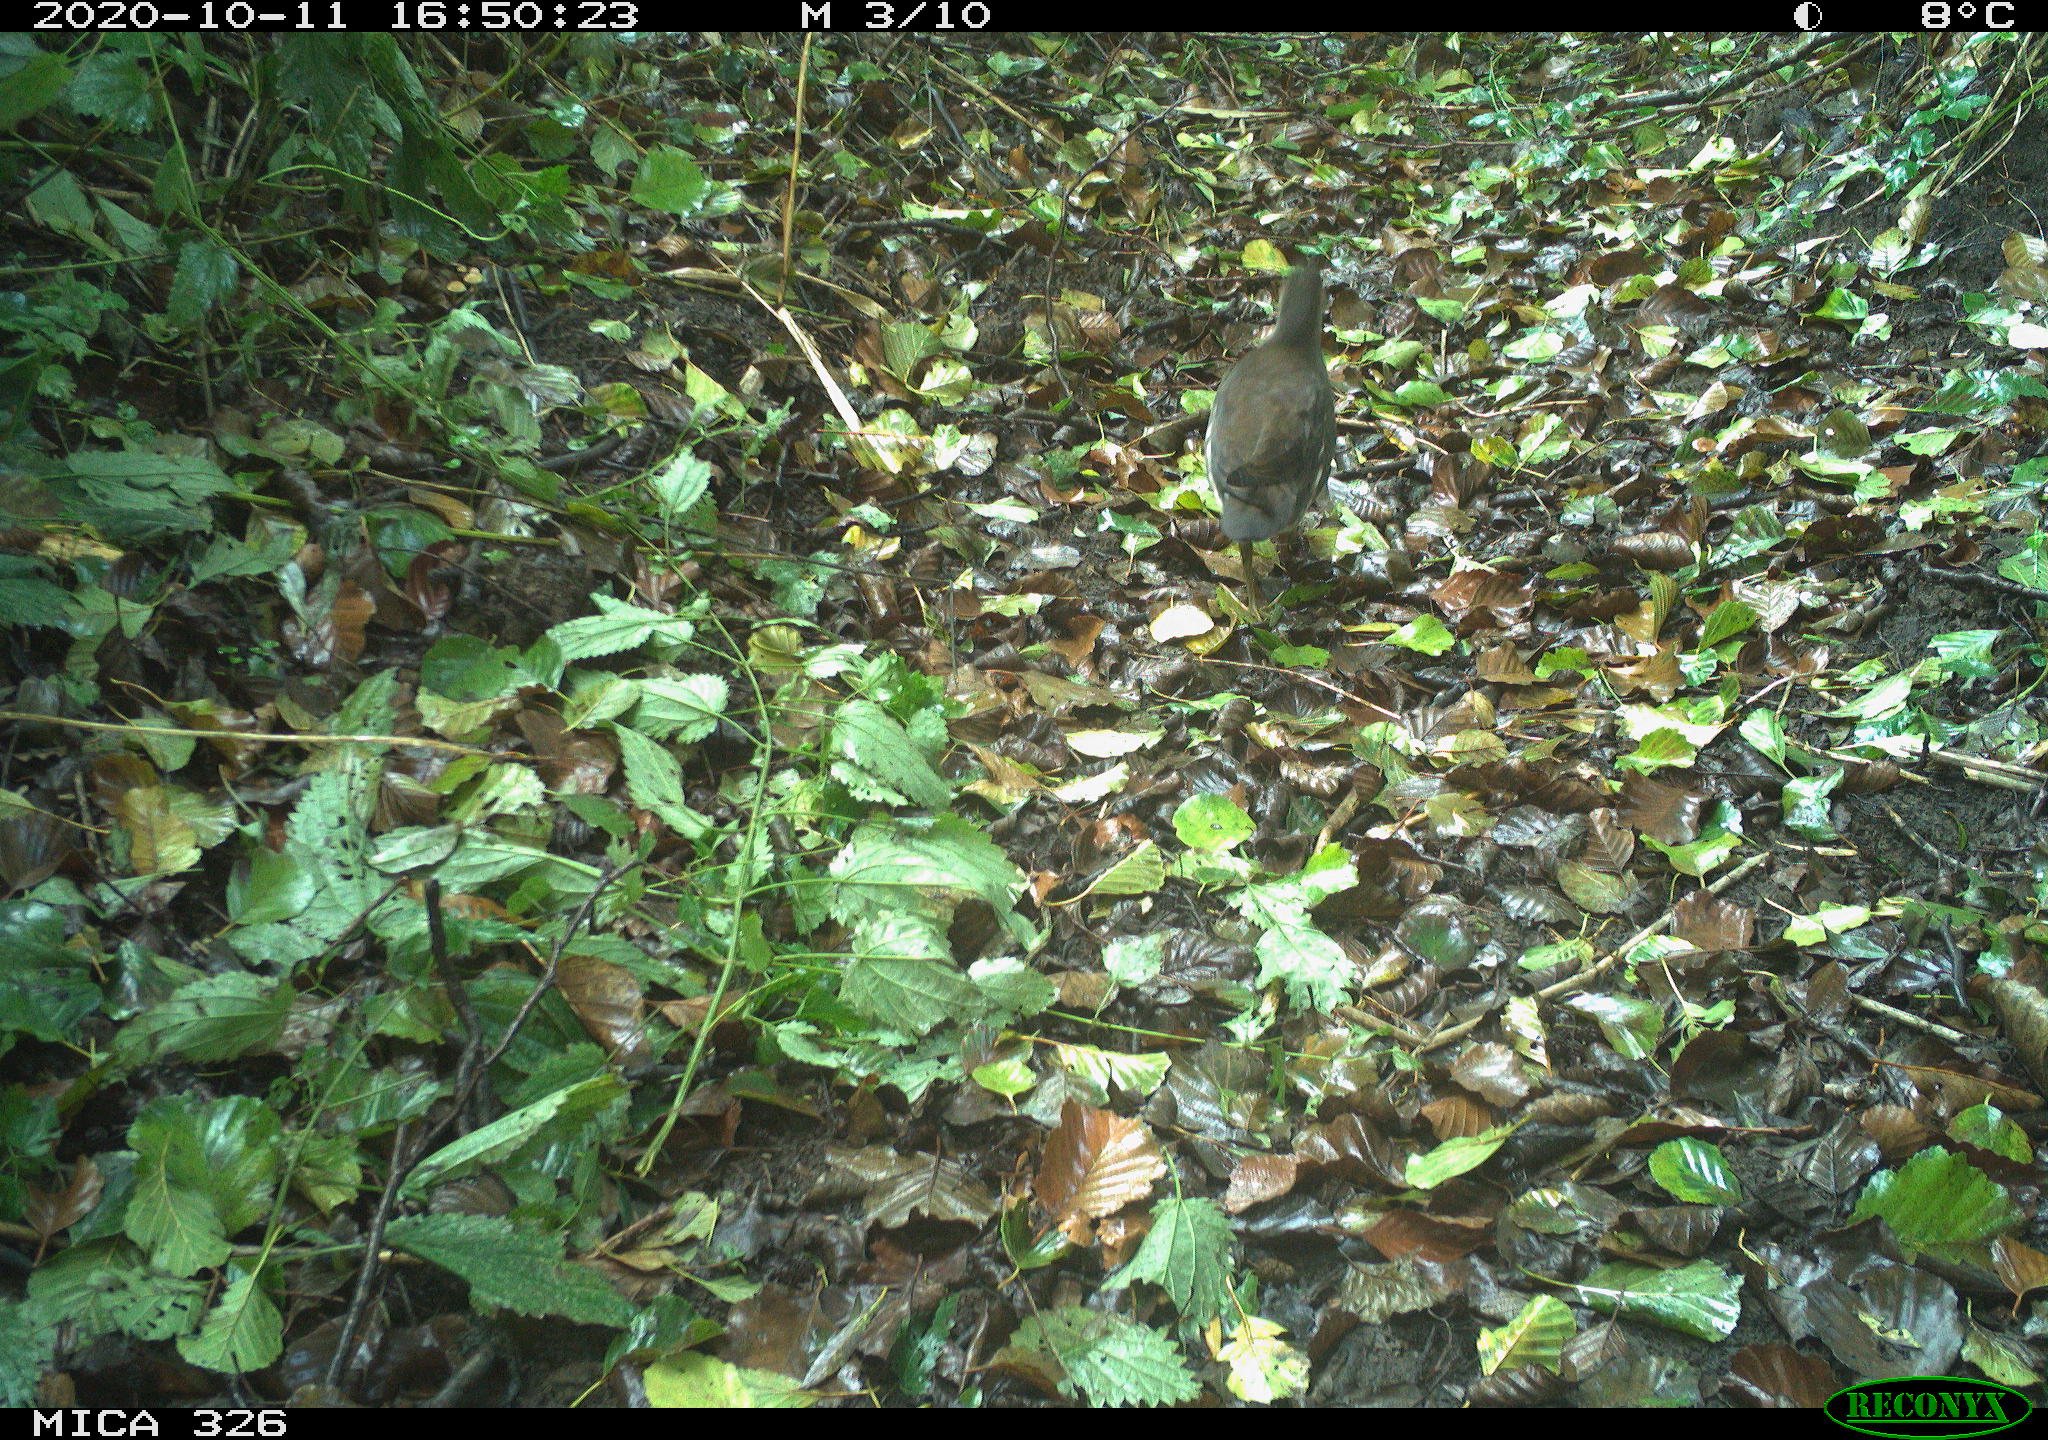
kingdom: Animalia
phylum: Chordata
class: Aves
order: Gruiformes
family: Rallidae
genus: Gallinula
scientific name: Gallinula chloropus
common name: Common moorhen
